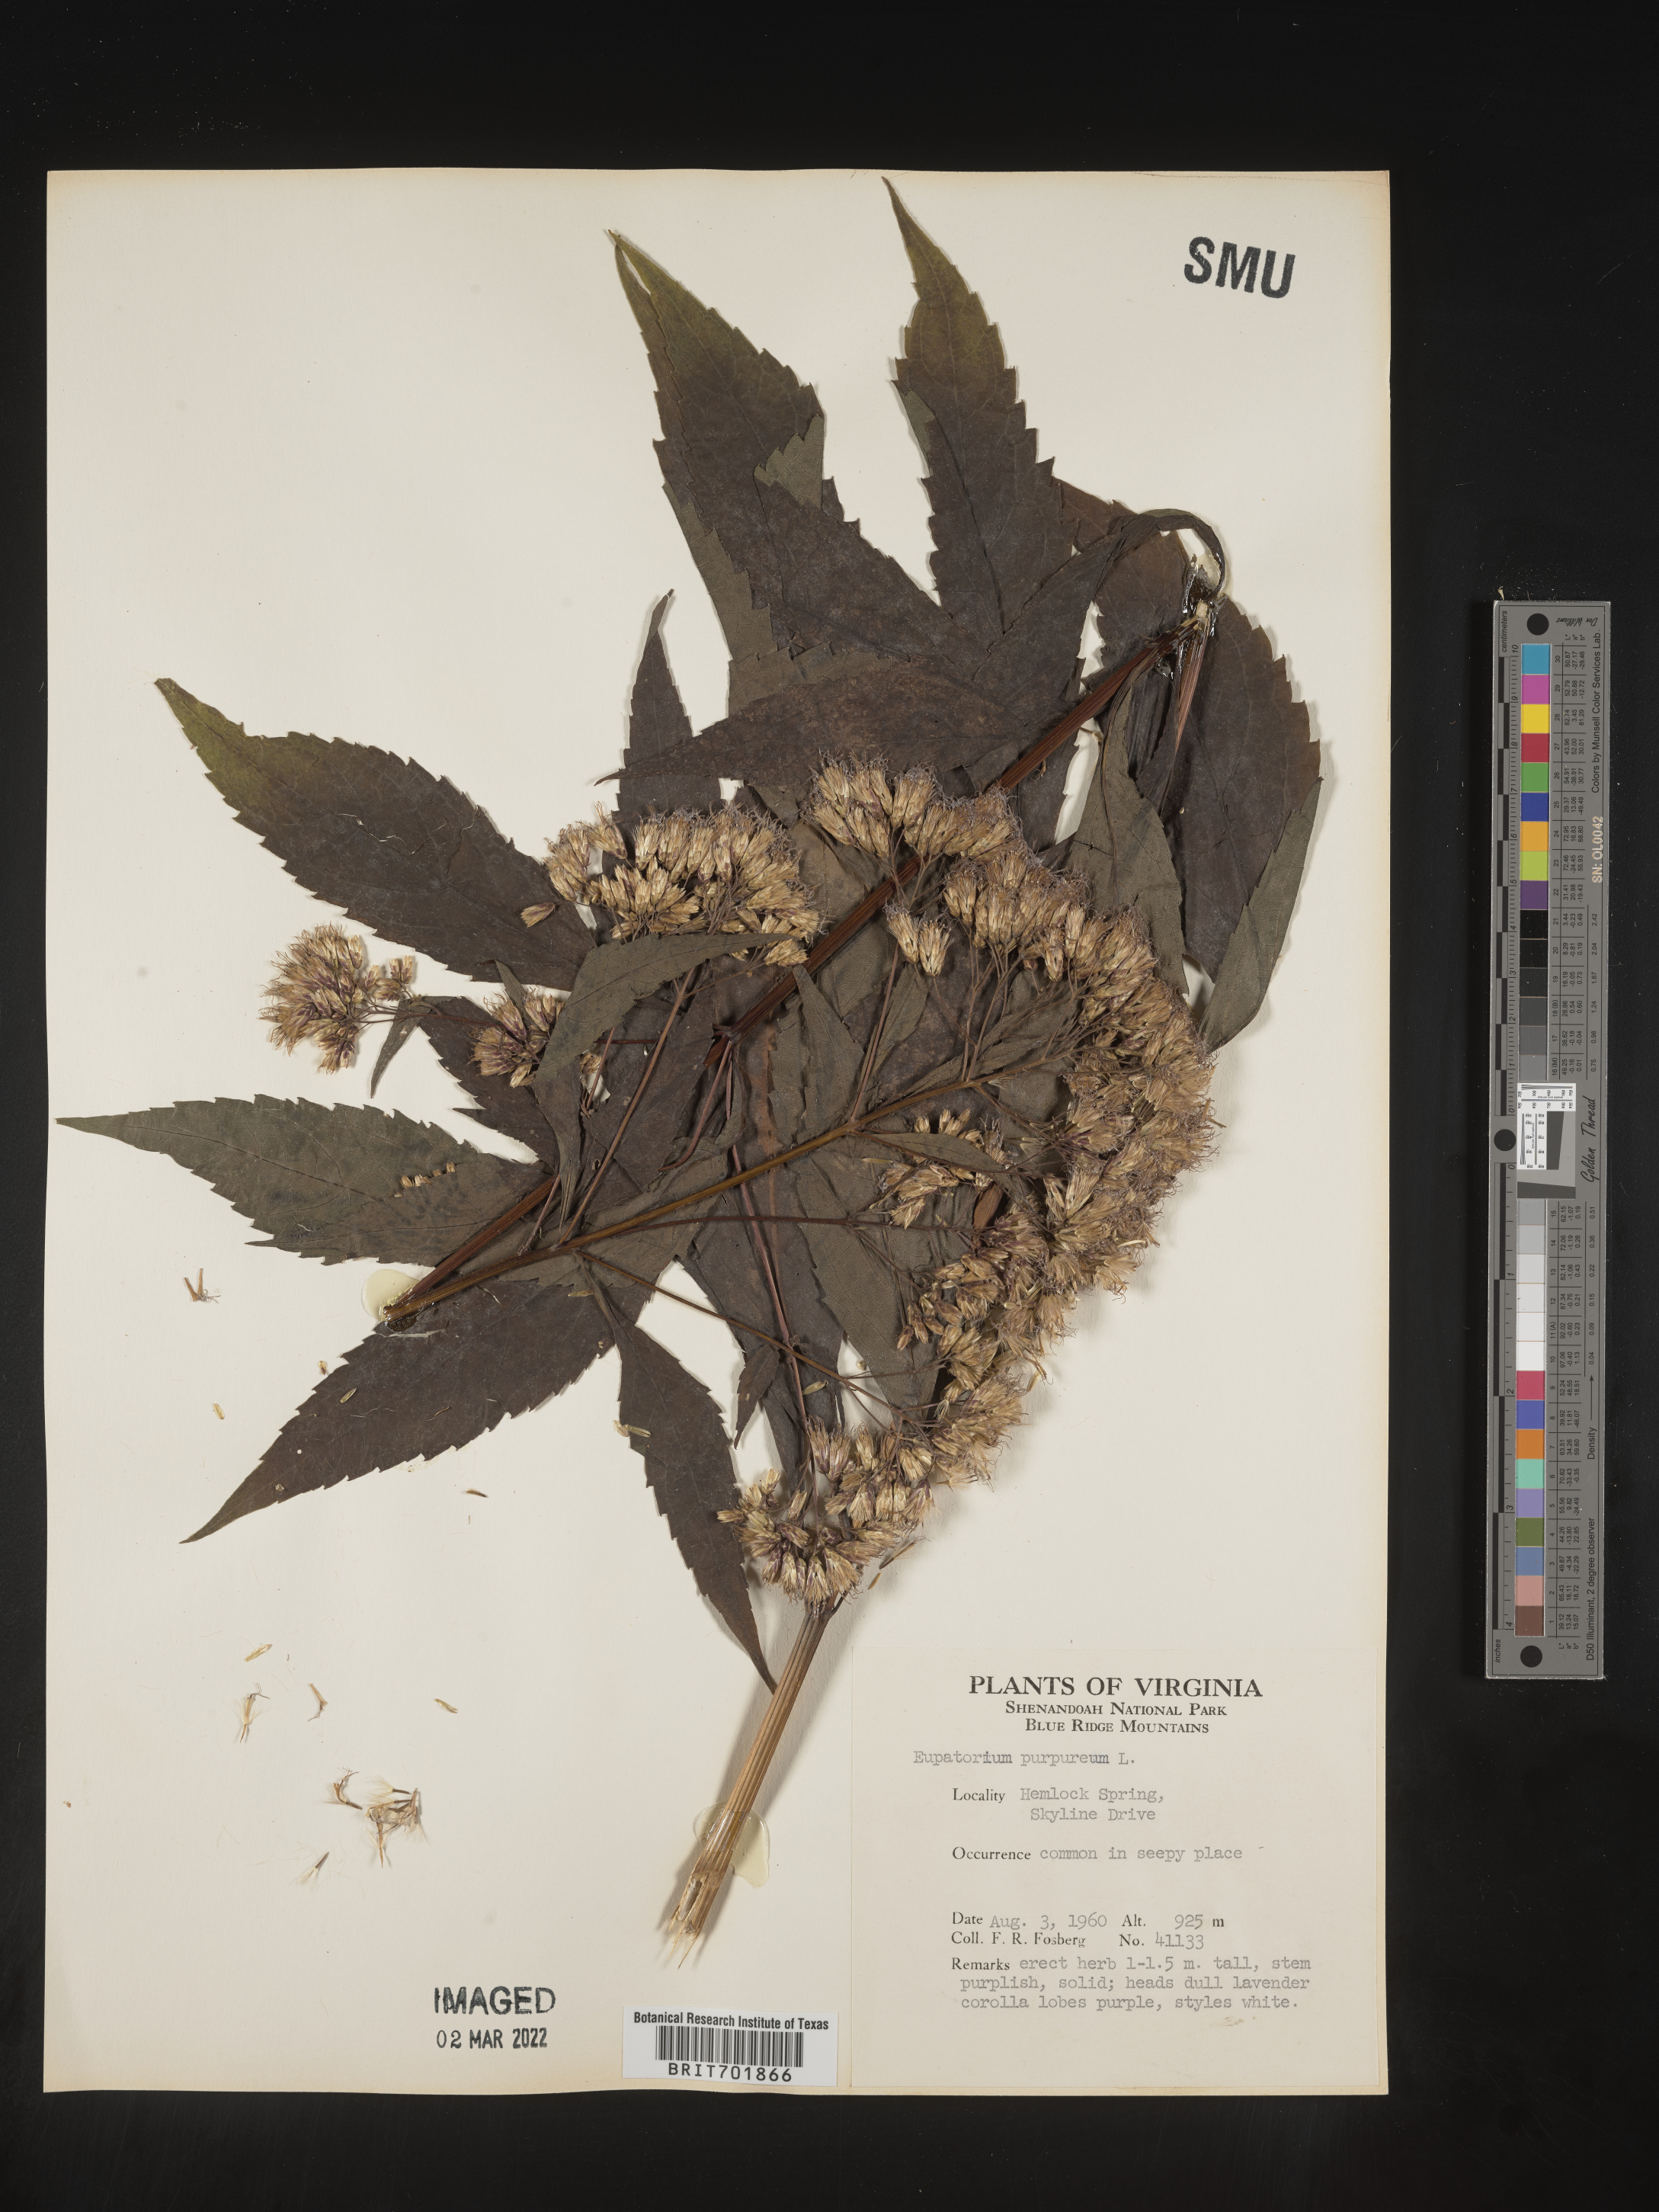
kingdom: Plantae
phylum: Tracheophyta
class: Magnoliopsida
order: Asterales
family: Asteraceae
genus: Eupatorium
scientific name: Eupatorium quaternum
